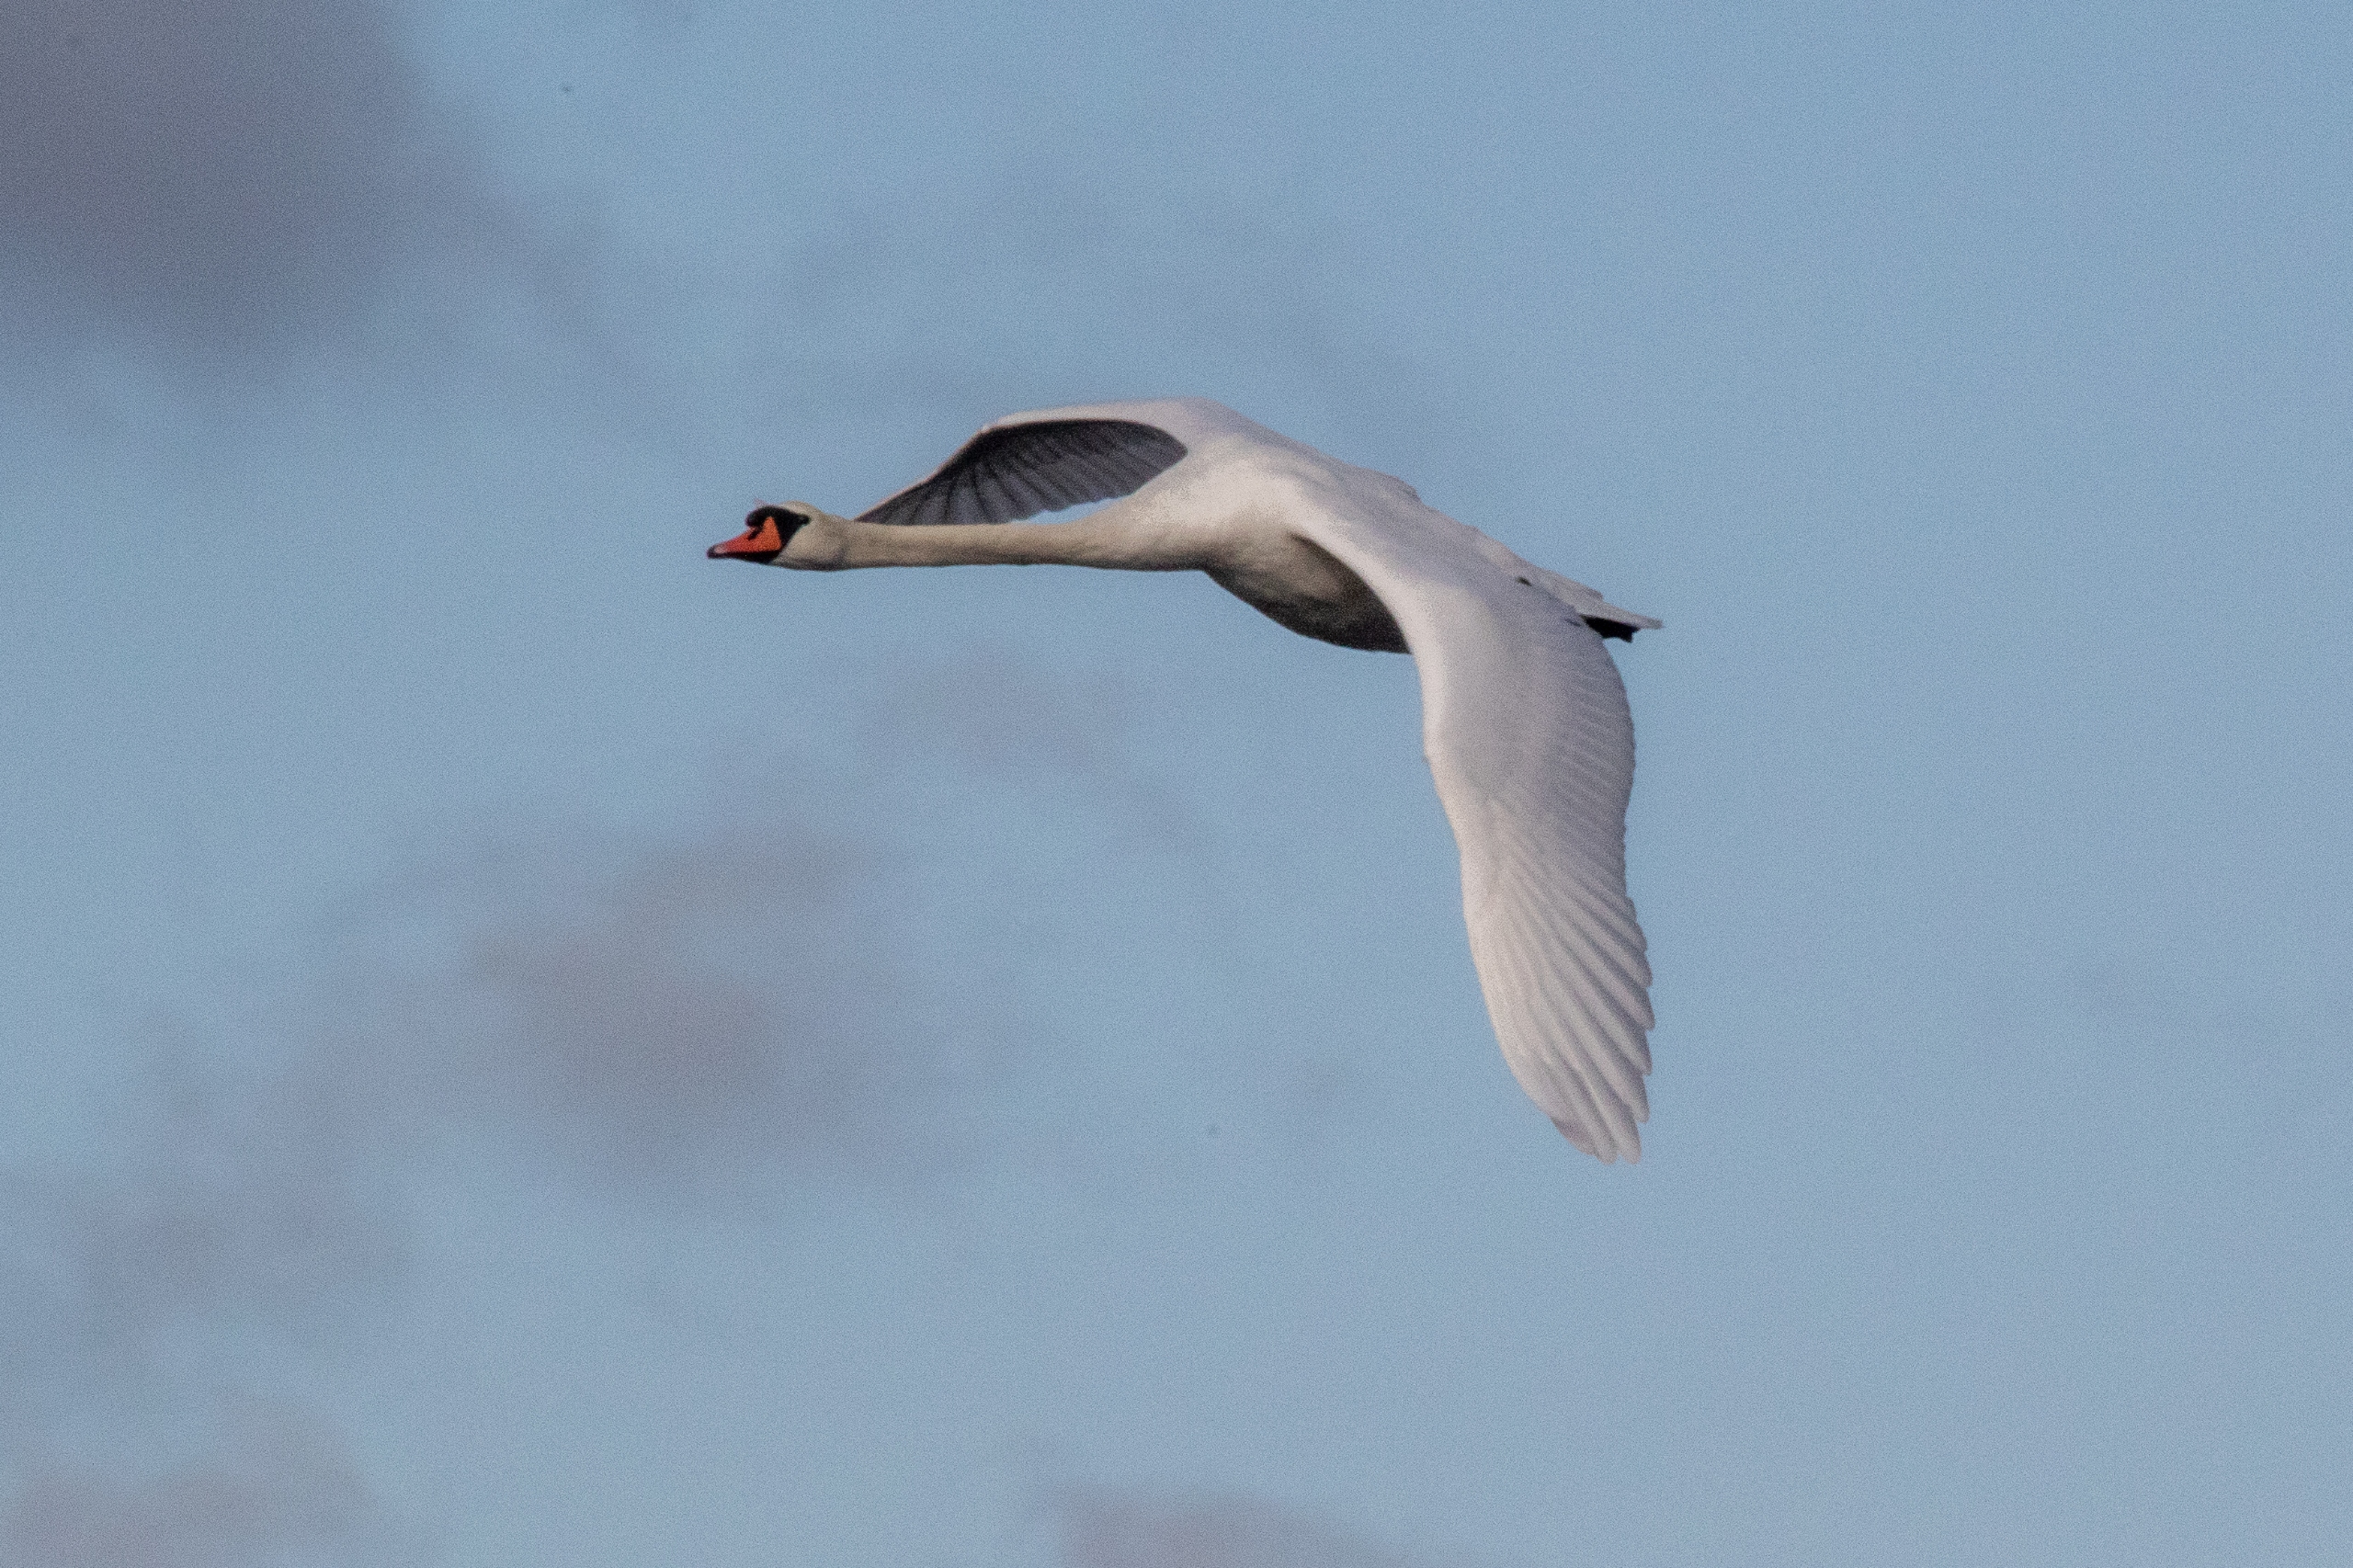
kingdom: Animalia
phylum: Chordata
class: Aves
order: Anseriformes
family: Anatidae
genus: Cygnus
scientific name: Cygnus olor
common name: Knopsvane
